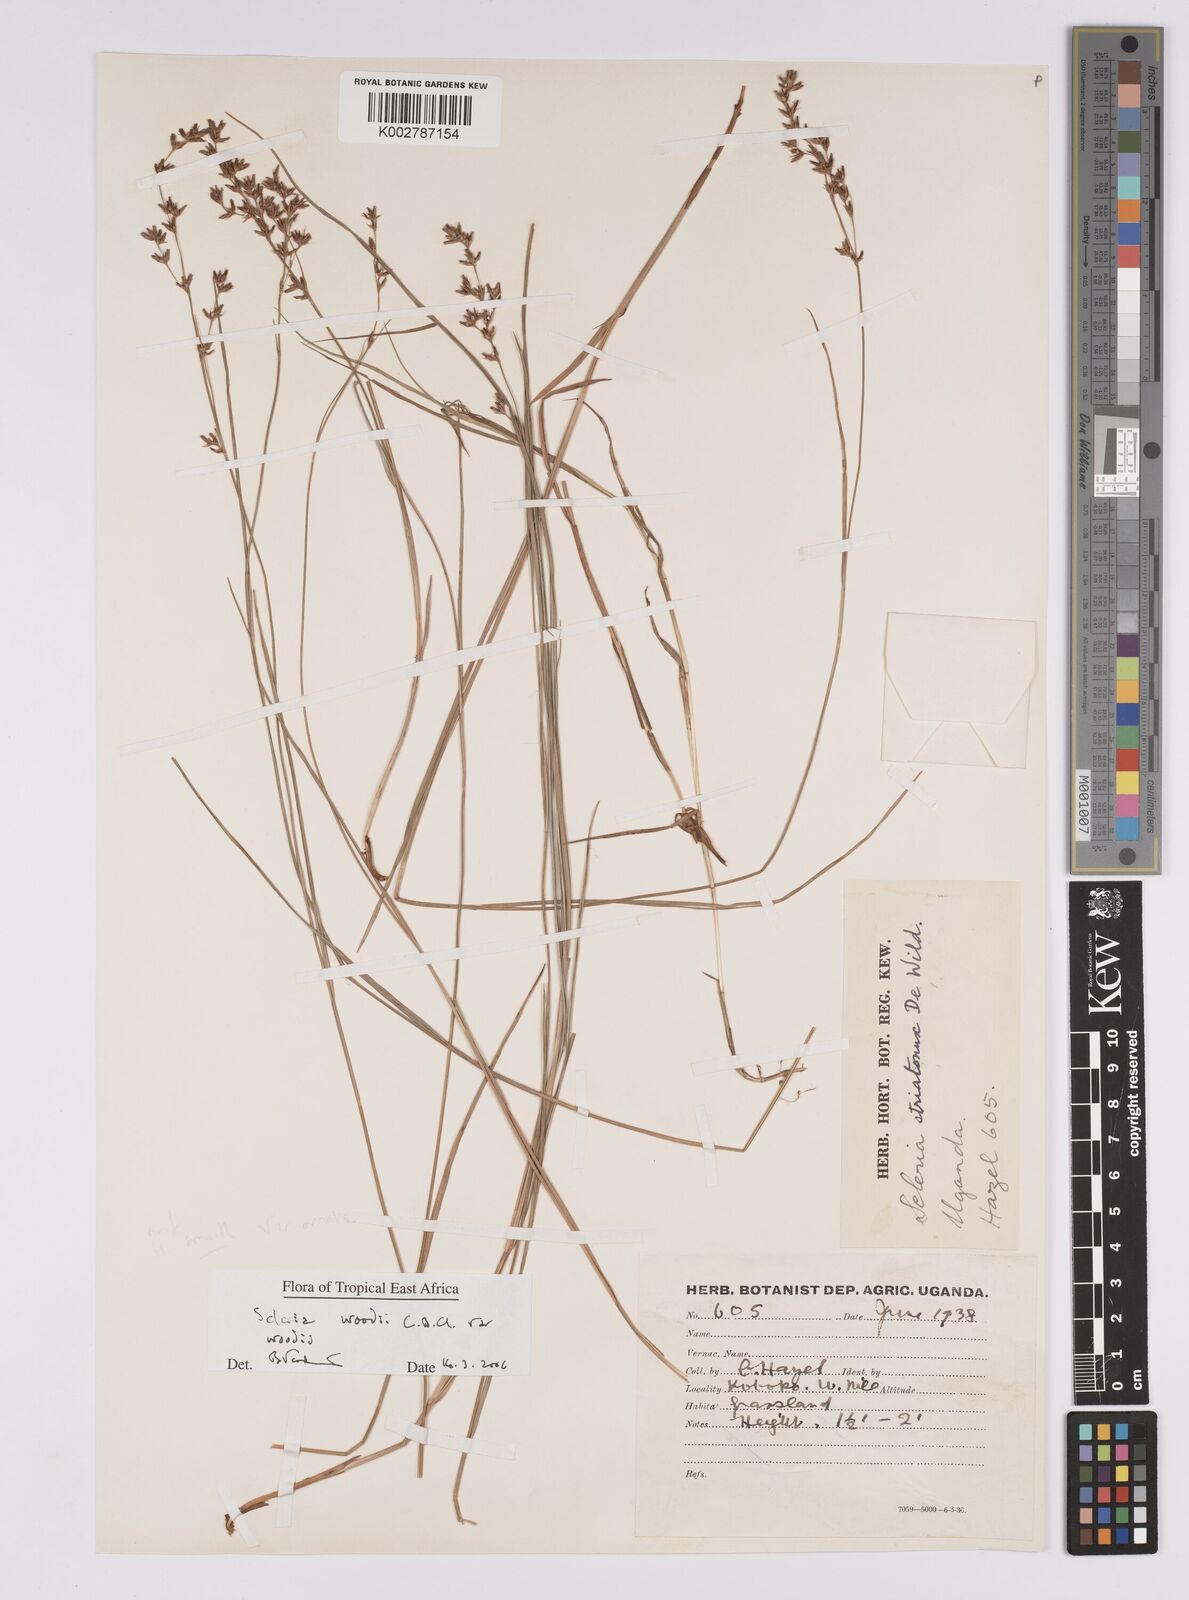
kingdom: Plantae
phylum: Tracheophyta
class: Liliopsida
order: Poales
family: Cyperaceae
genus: Scleria
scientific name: Scleria woodii
